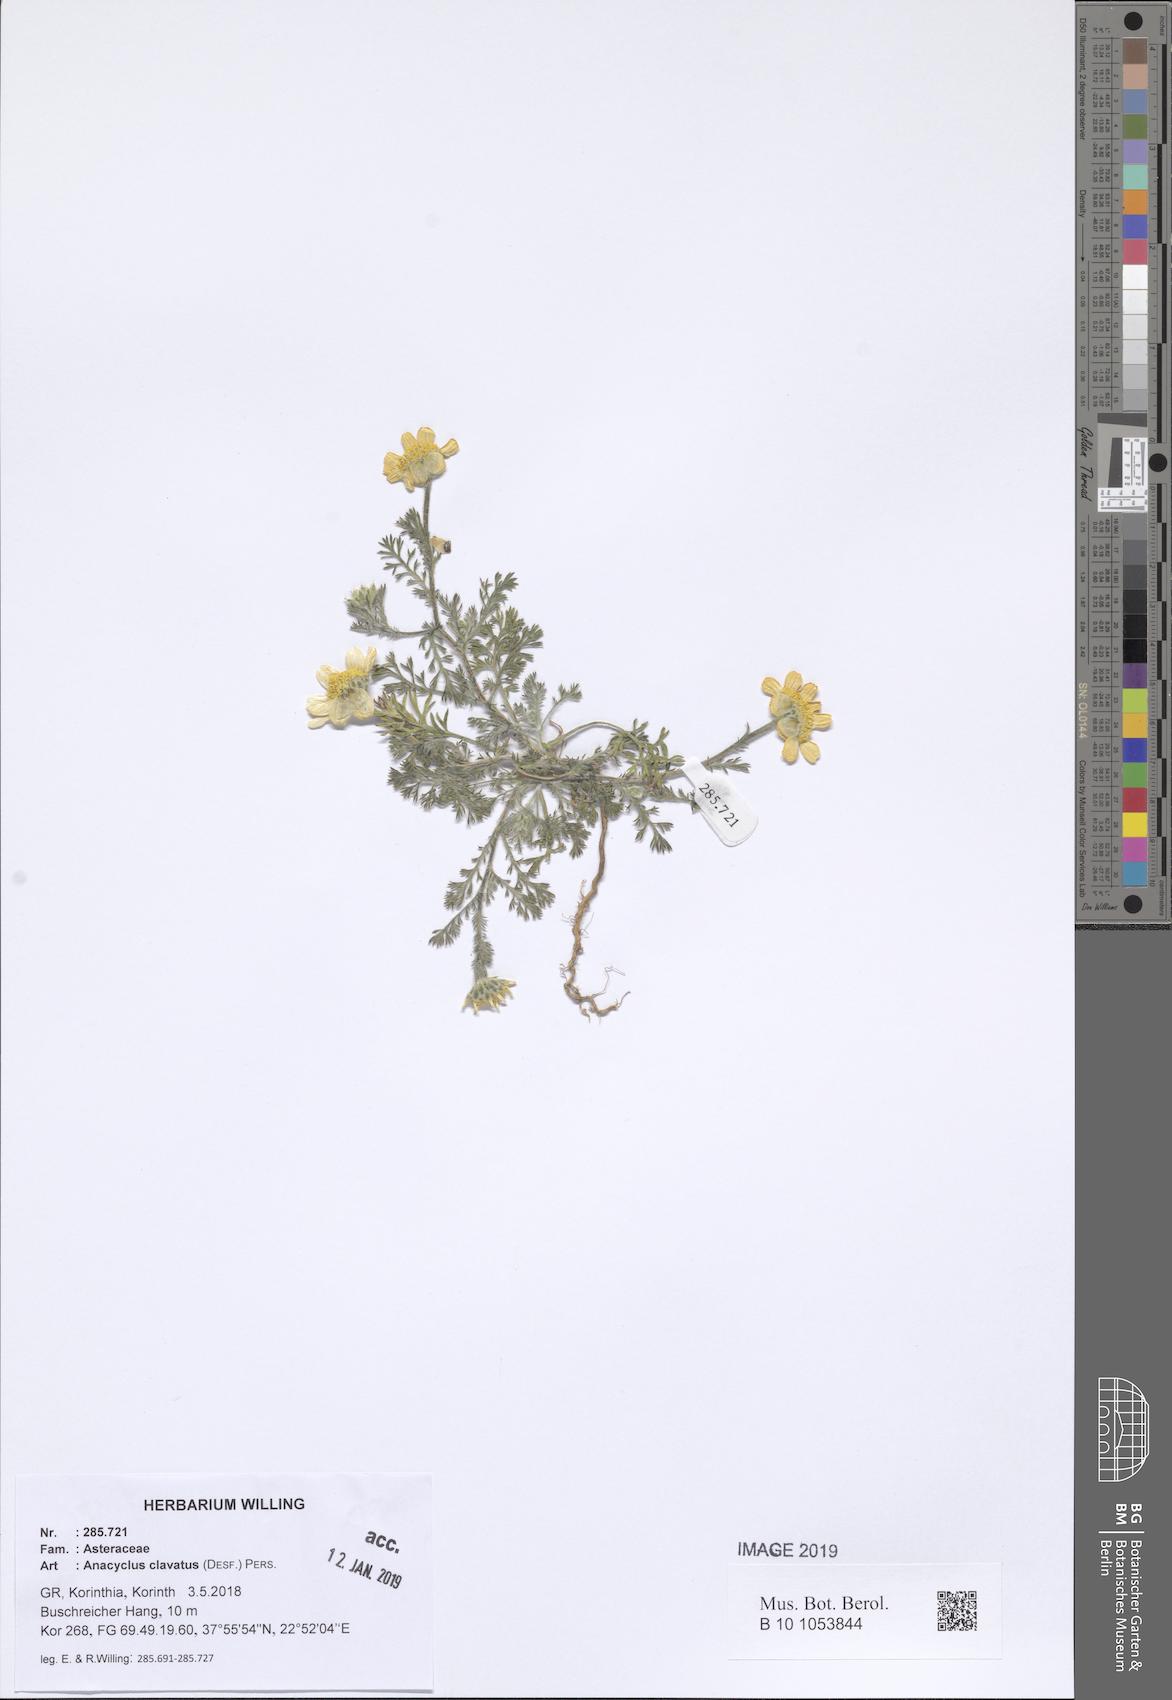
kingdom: Plantae
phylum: Tracheophyta
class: Magnoliopsida
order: Asterales
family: Asteraceae
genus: Anacyclus
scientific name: Anacyclus clavatus
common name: Whitebuttons
